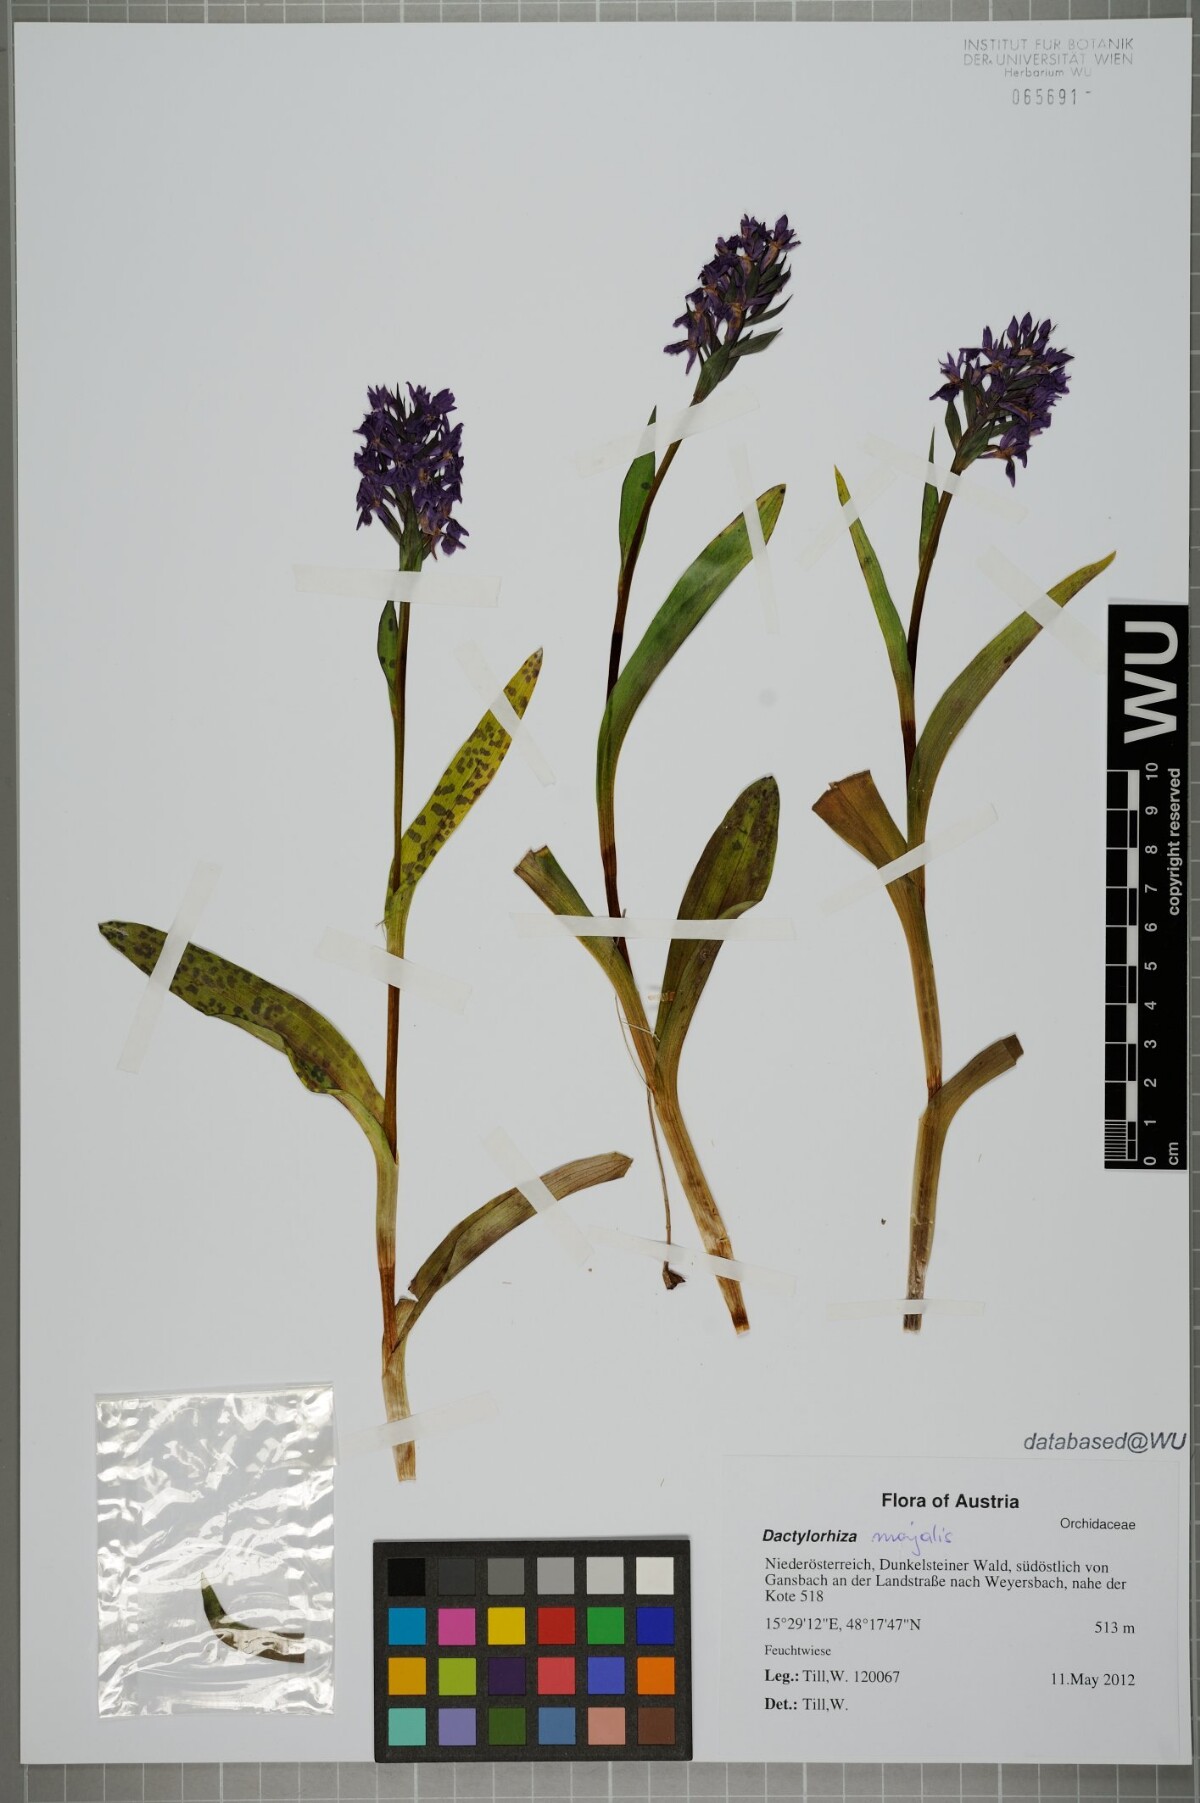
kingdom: Plantae
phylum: Tracheophyta
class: Liliopsida
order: Asparagales
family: Orchidaceae
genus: Dactylorhiza
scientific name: Dactylorhiza majalis
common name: Marsh orchid
